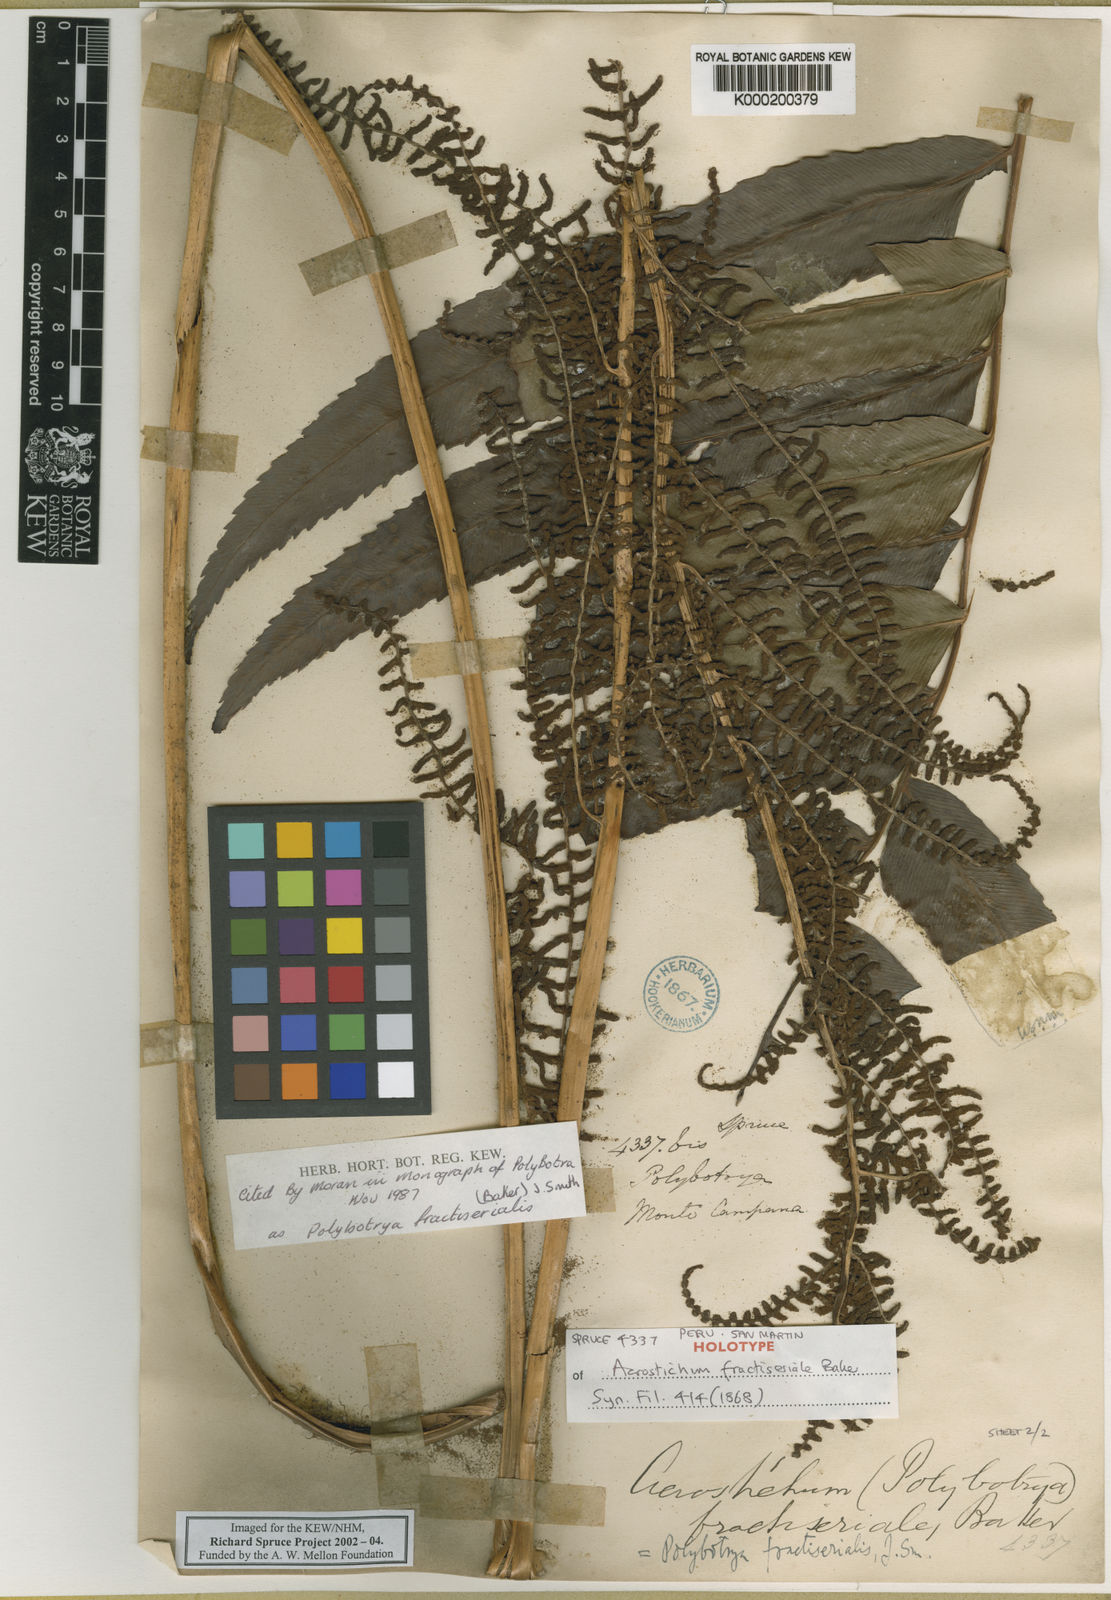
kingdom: Plantae
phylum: Tracheophyta
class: Polypodiopsida
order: Polypodiales
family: Dryopteridaceae
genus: Polybotrya
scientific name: Polybotrya fractiserialis
